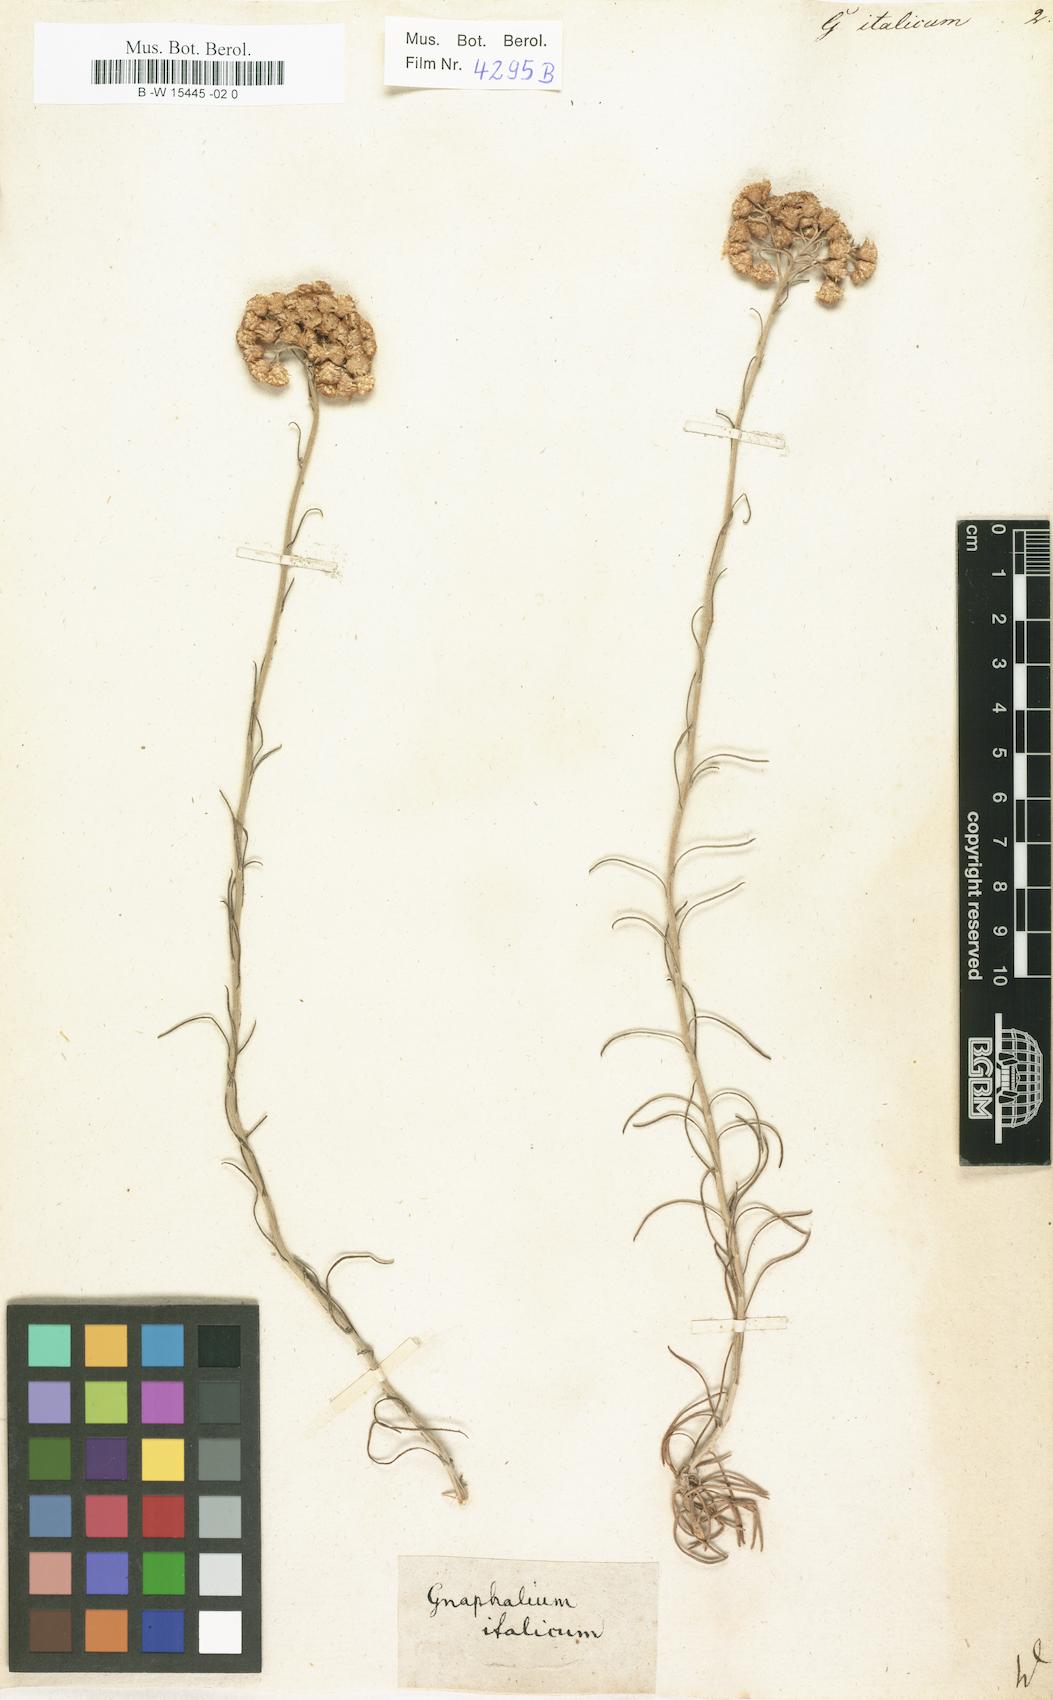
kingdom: Plantae
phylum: Tracheophyta
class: Magnoliopsida
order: Asterales
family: Asteraceae
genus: Helichrysum
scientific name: Helichrysum italicum
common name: Curryplant
